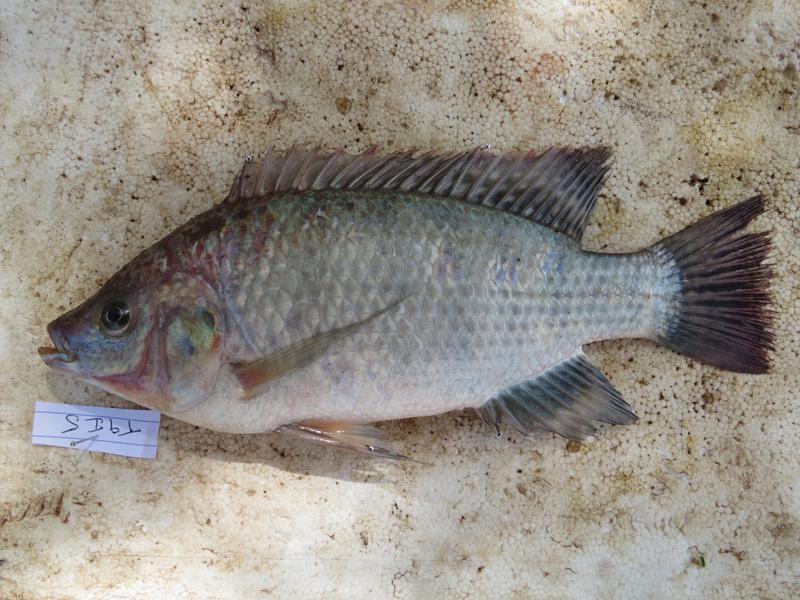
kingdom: Animalia
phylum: Chordata
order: Perciformes
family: Cichlidae
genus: Oreochromis
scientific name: Oreochromis rukwaensis
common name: Lake rukwa tilapia
